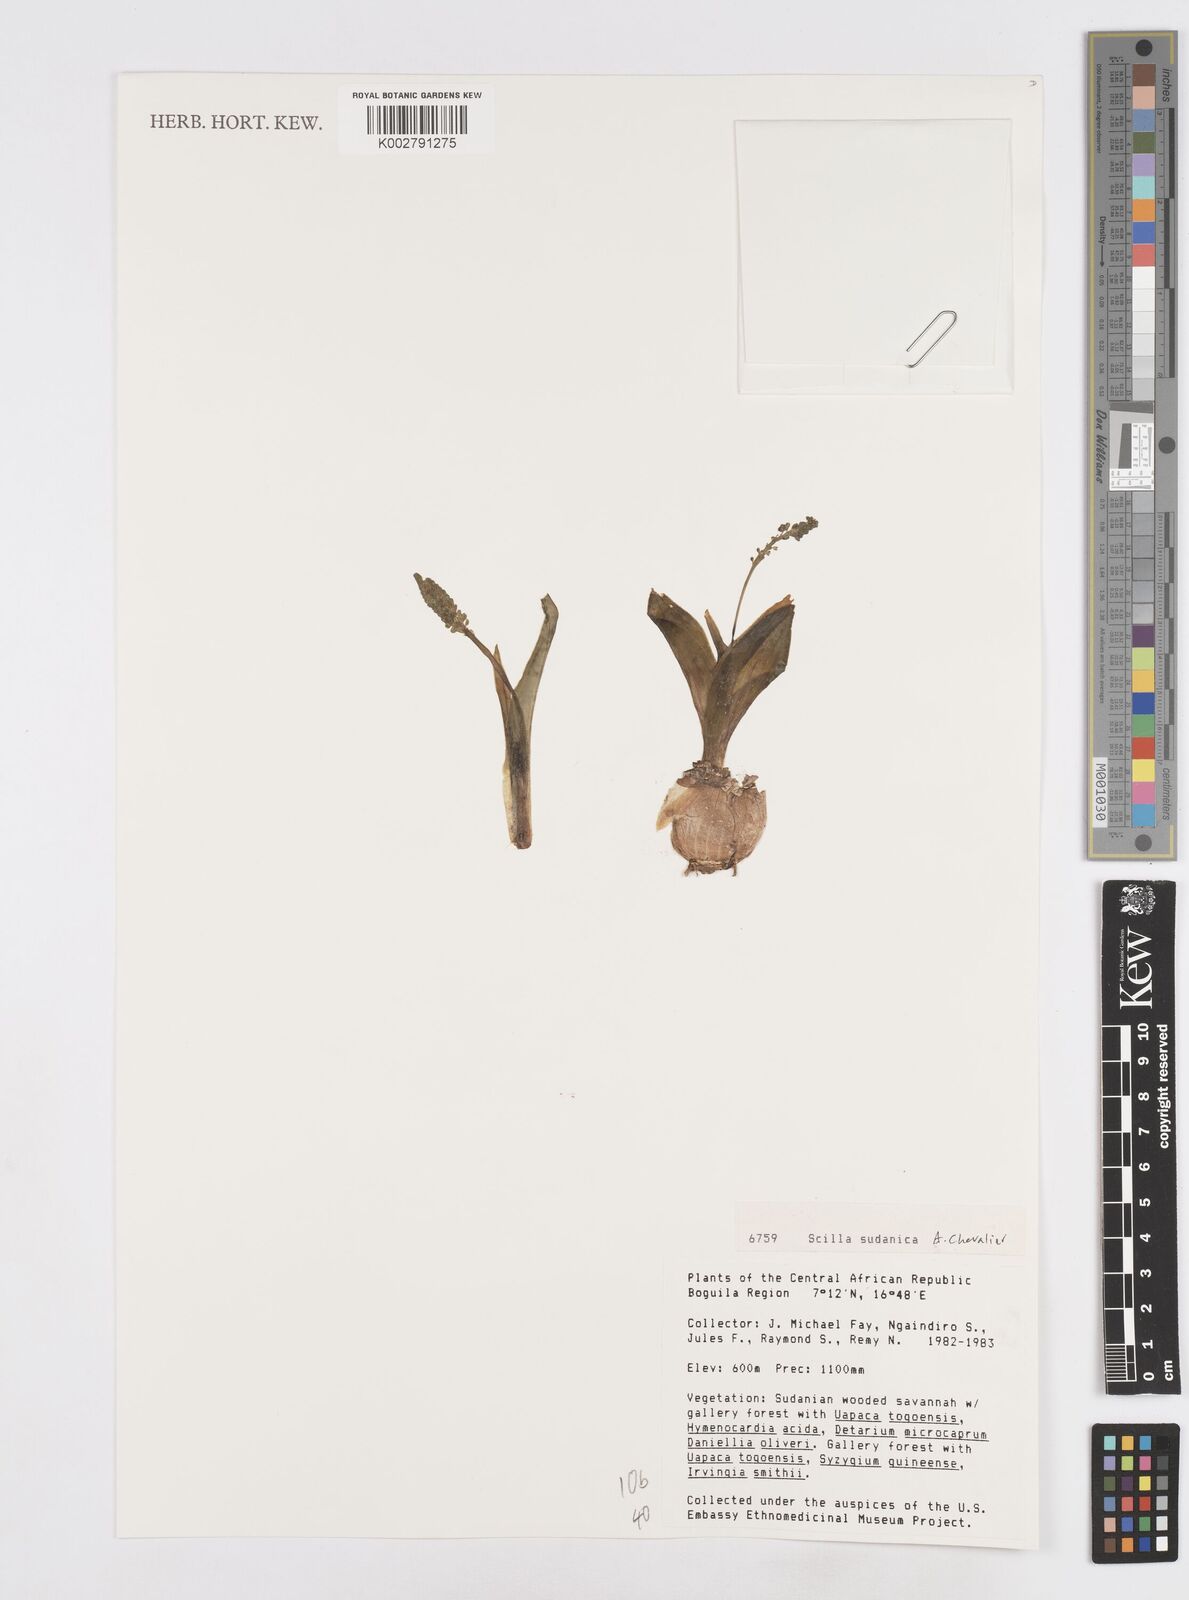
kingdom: Plantae
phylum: Tracheophyta
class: Liliopsida
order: Asparagales
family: Asparagaceae
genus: Ledebouria
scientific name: Ledebouria sudanica
